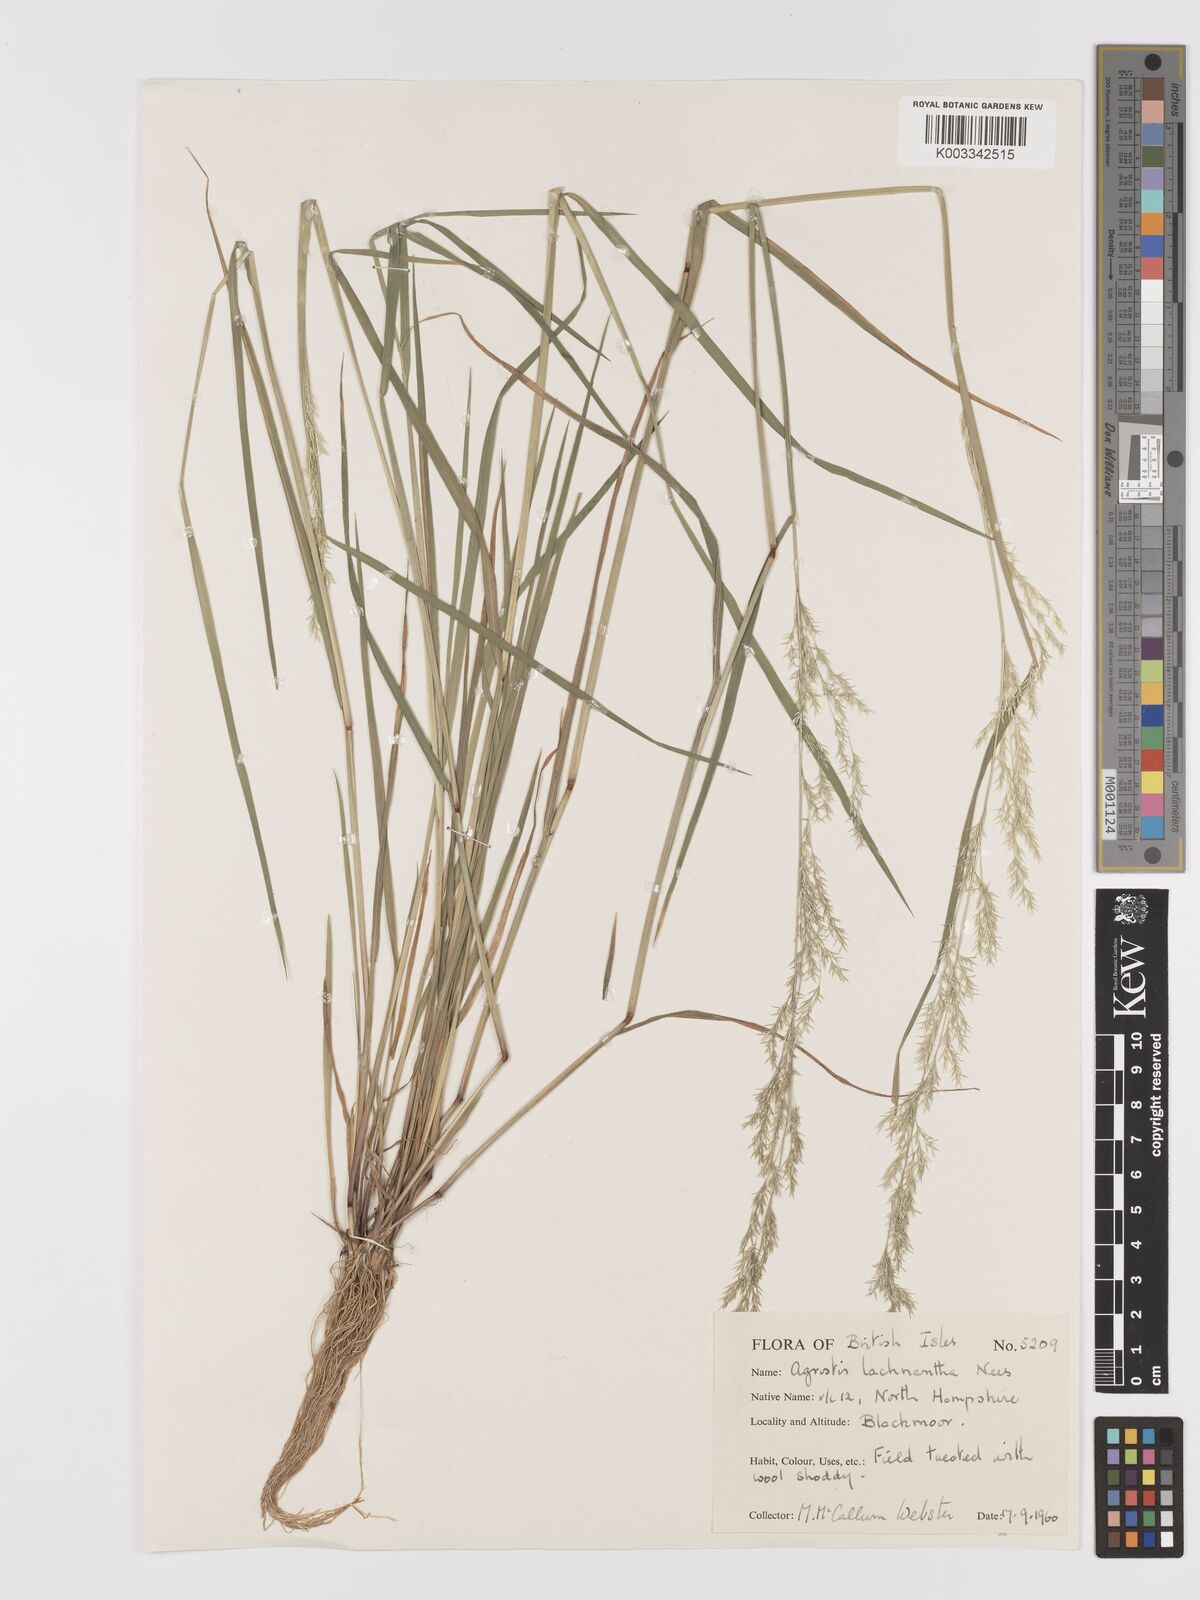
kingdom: Plantae
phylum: Tracheophyta
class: Liliopsida
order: Poales
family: Poaceae
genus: Lachnagrostis
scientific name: Lachnagrostis lachnantha
